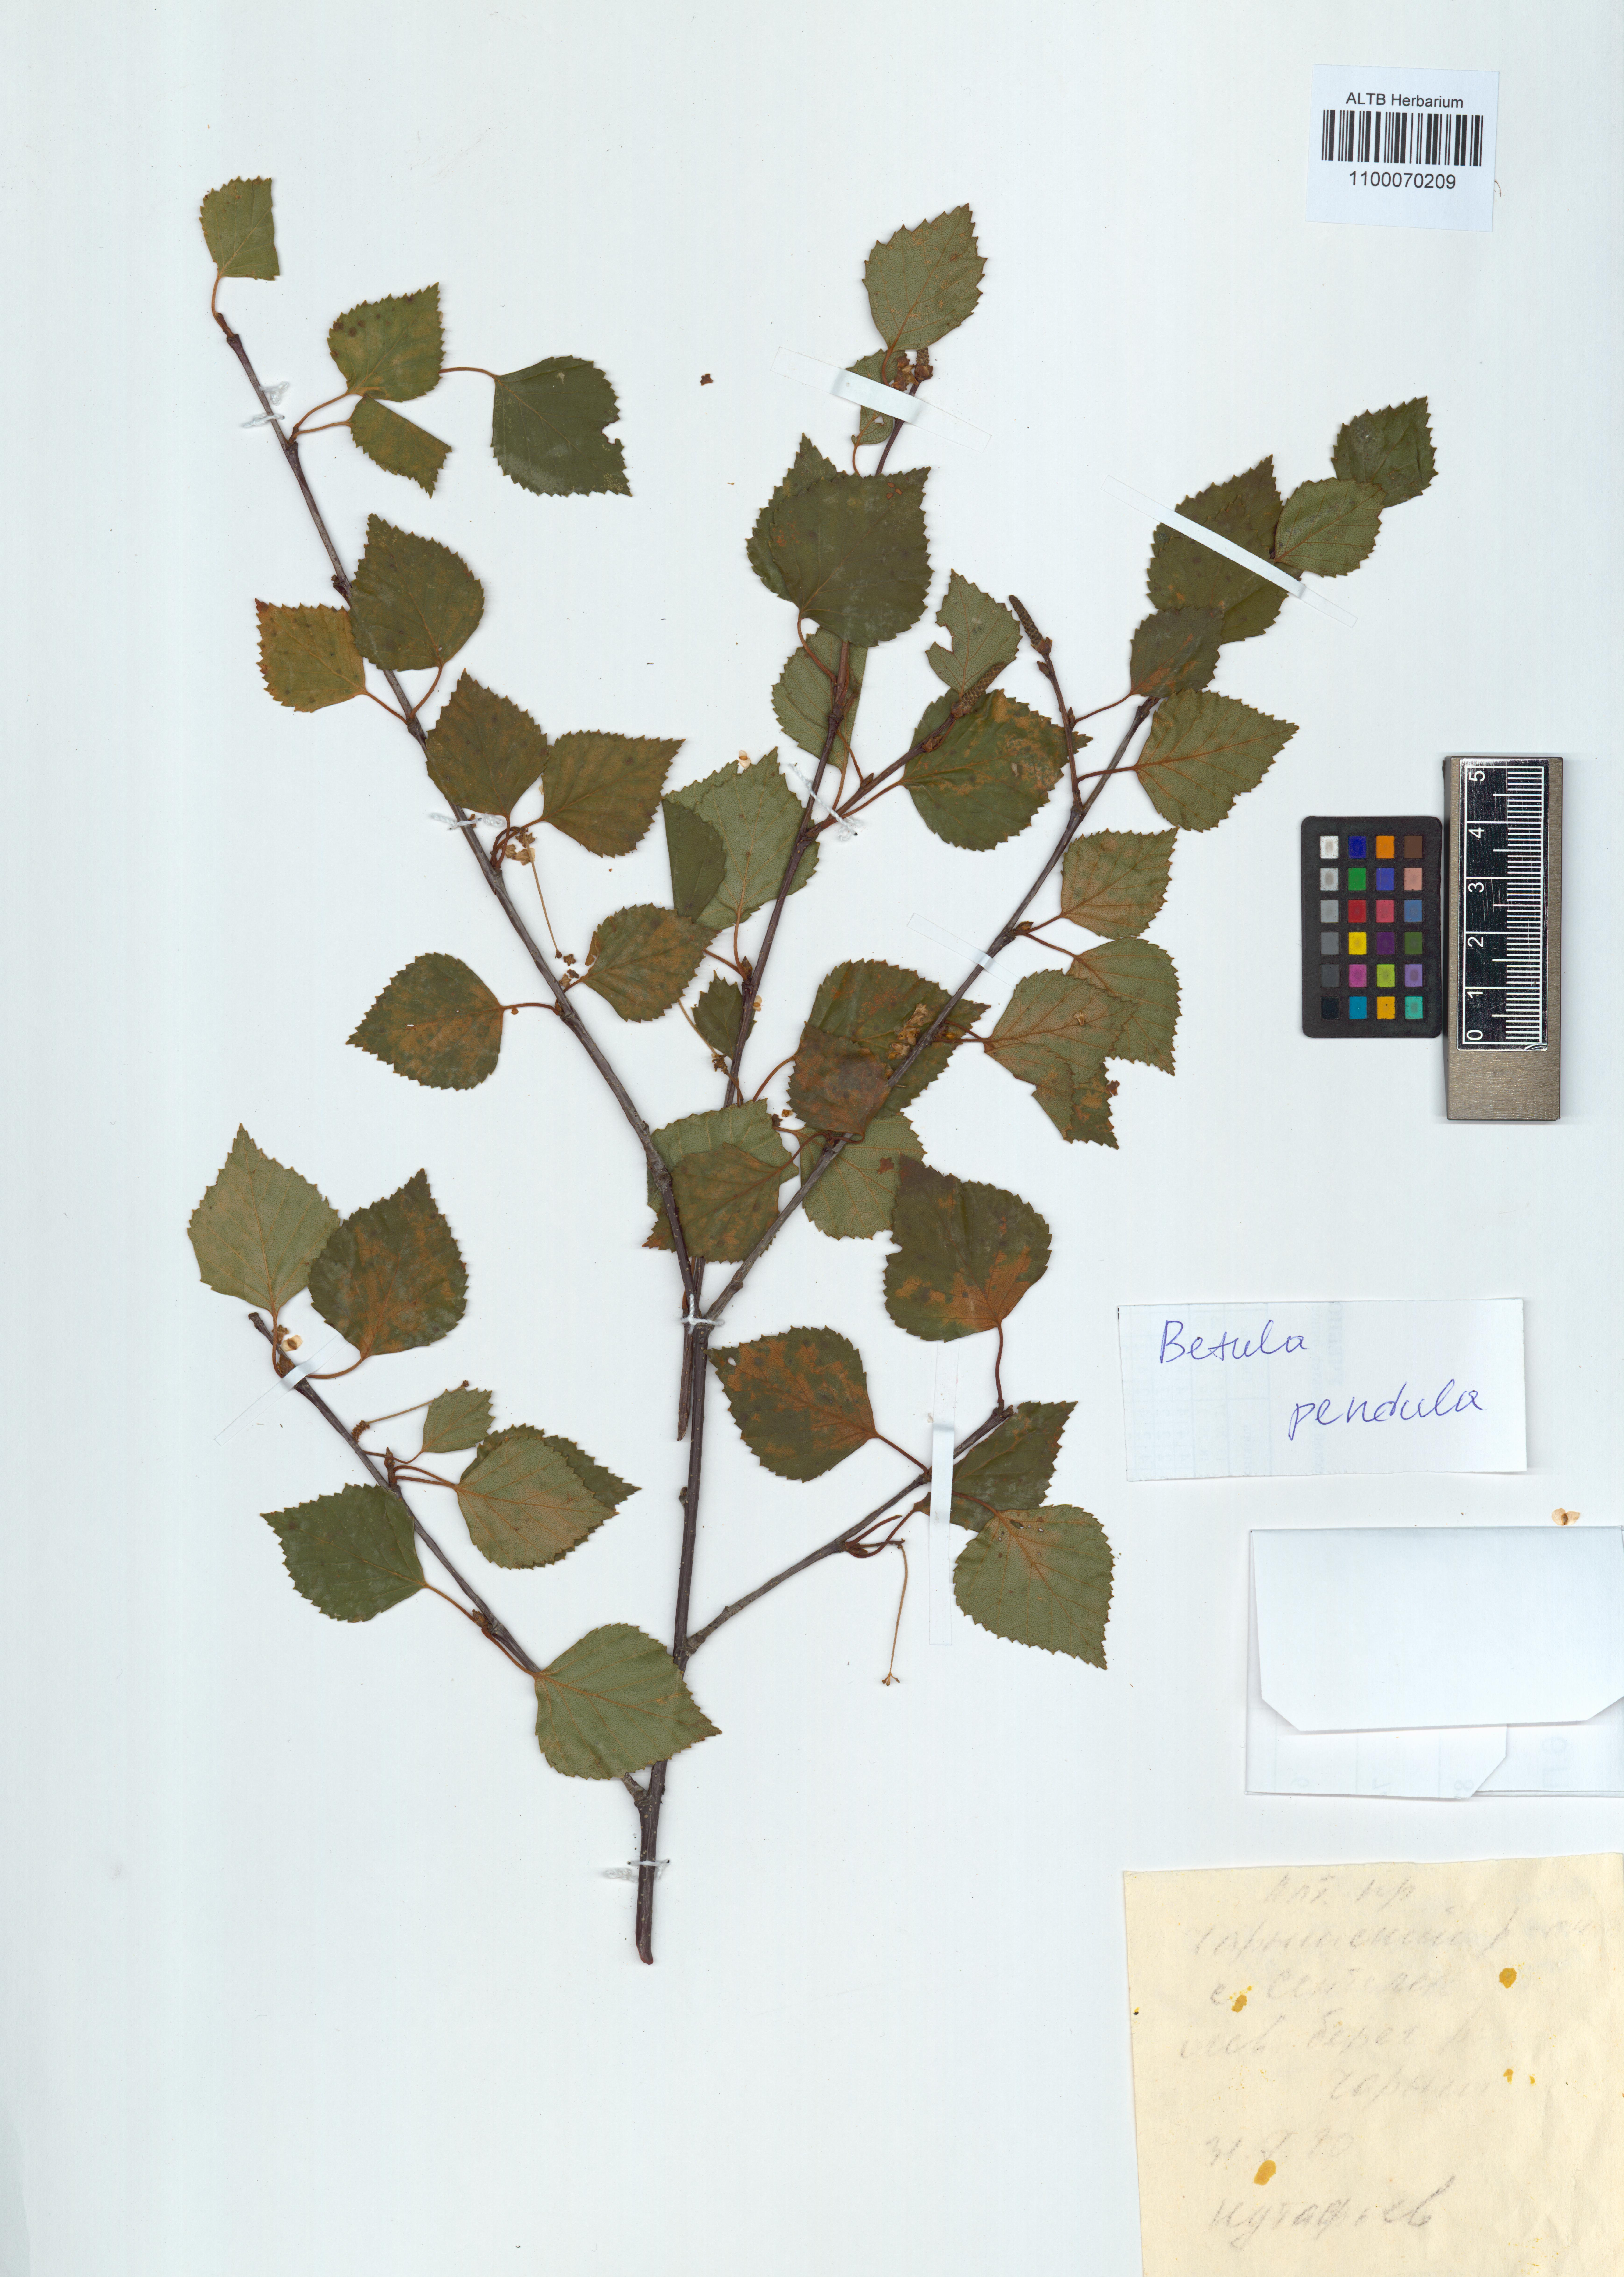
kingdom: Plantae
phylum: Tracheophyta
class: Magnoliopsida
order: Fagales
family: Betulaceae
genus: Betula
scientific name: Betula pendula
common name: Silver birch
